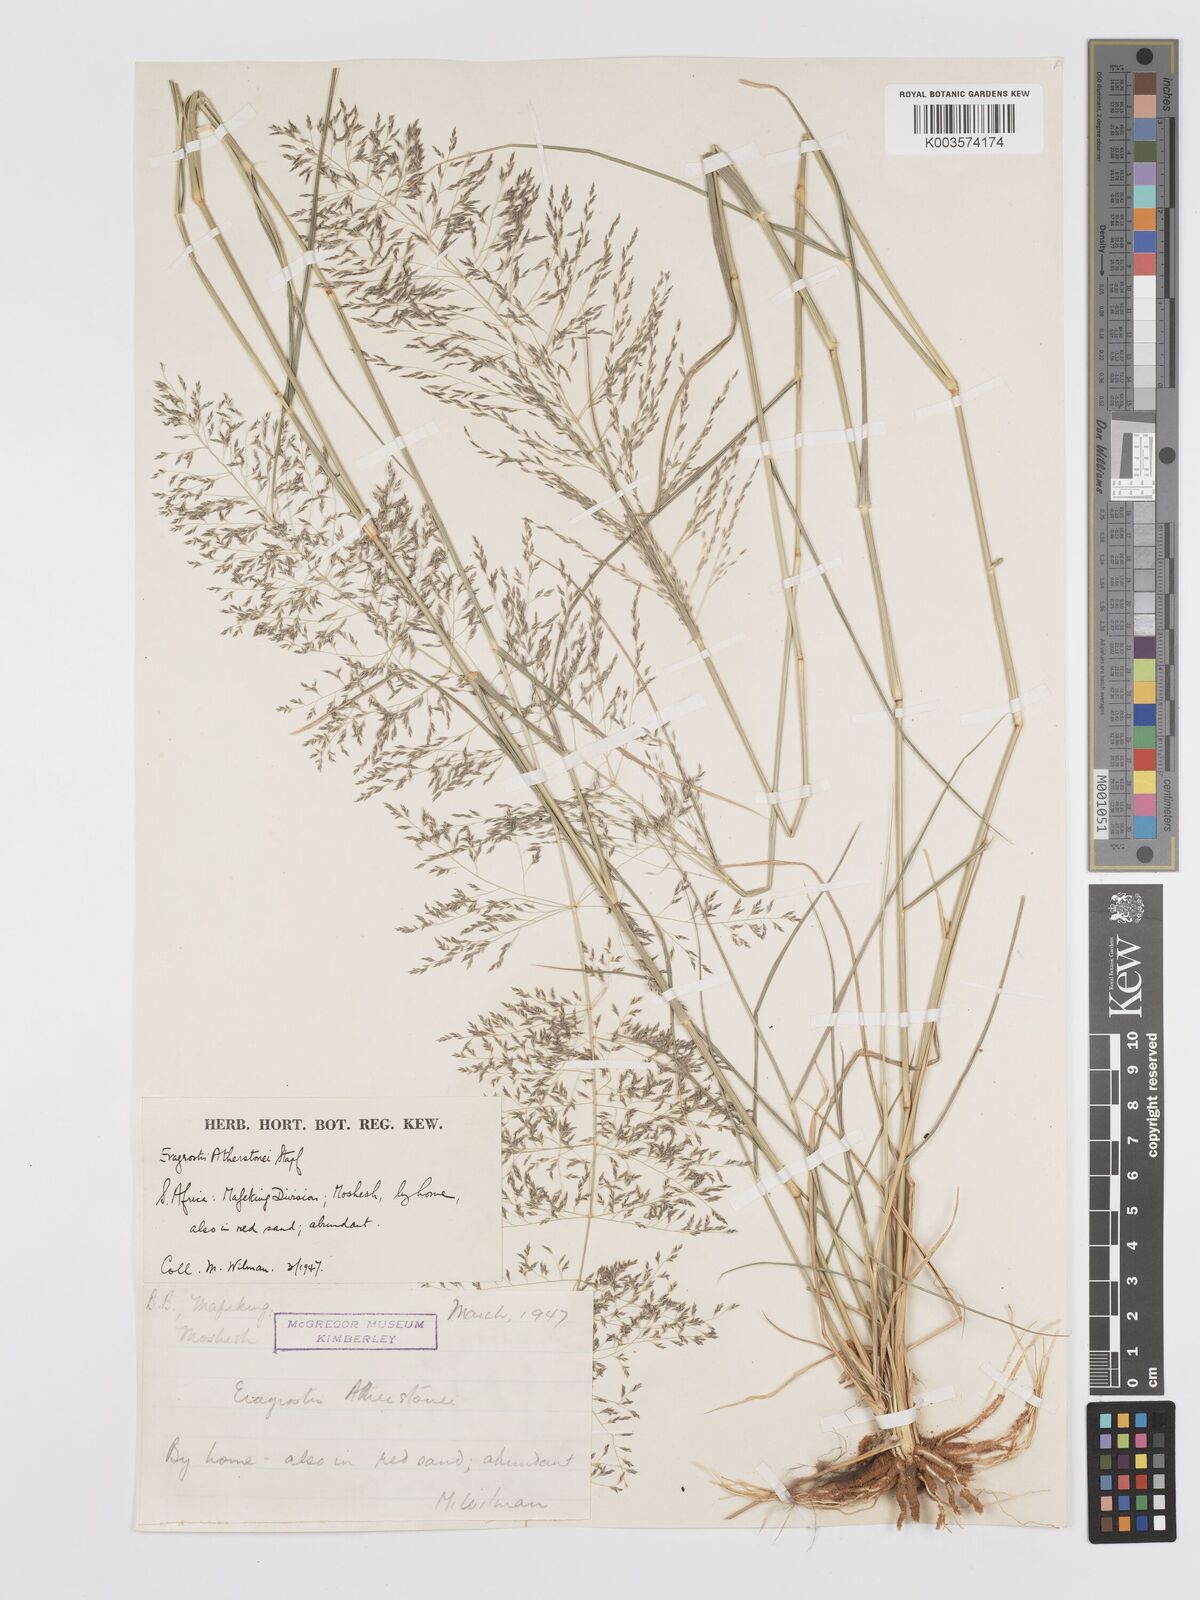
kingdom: Plantae
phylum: Tracheophyta
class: Liliopsida
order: Poales
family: Poaceae
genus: Eragrostis
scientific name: Eragrostis cylindriflora
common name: Cylinderflower lovegrass
